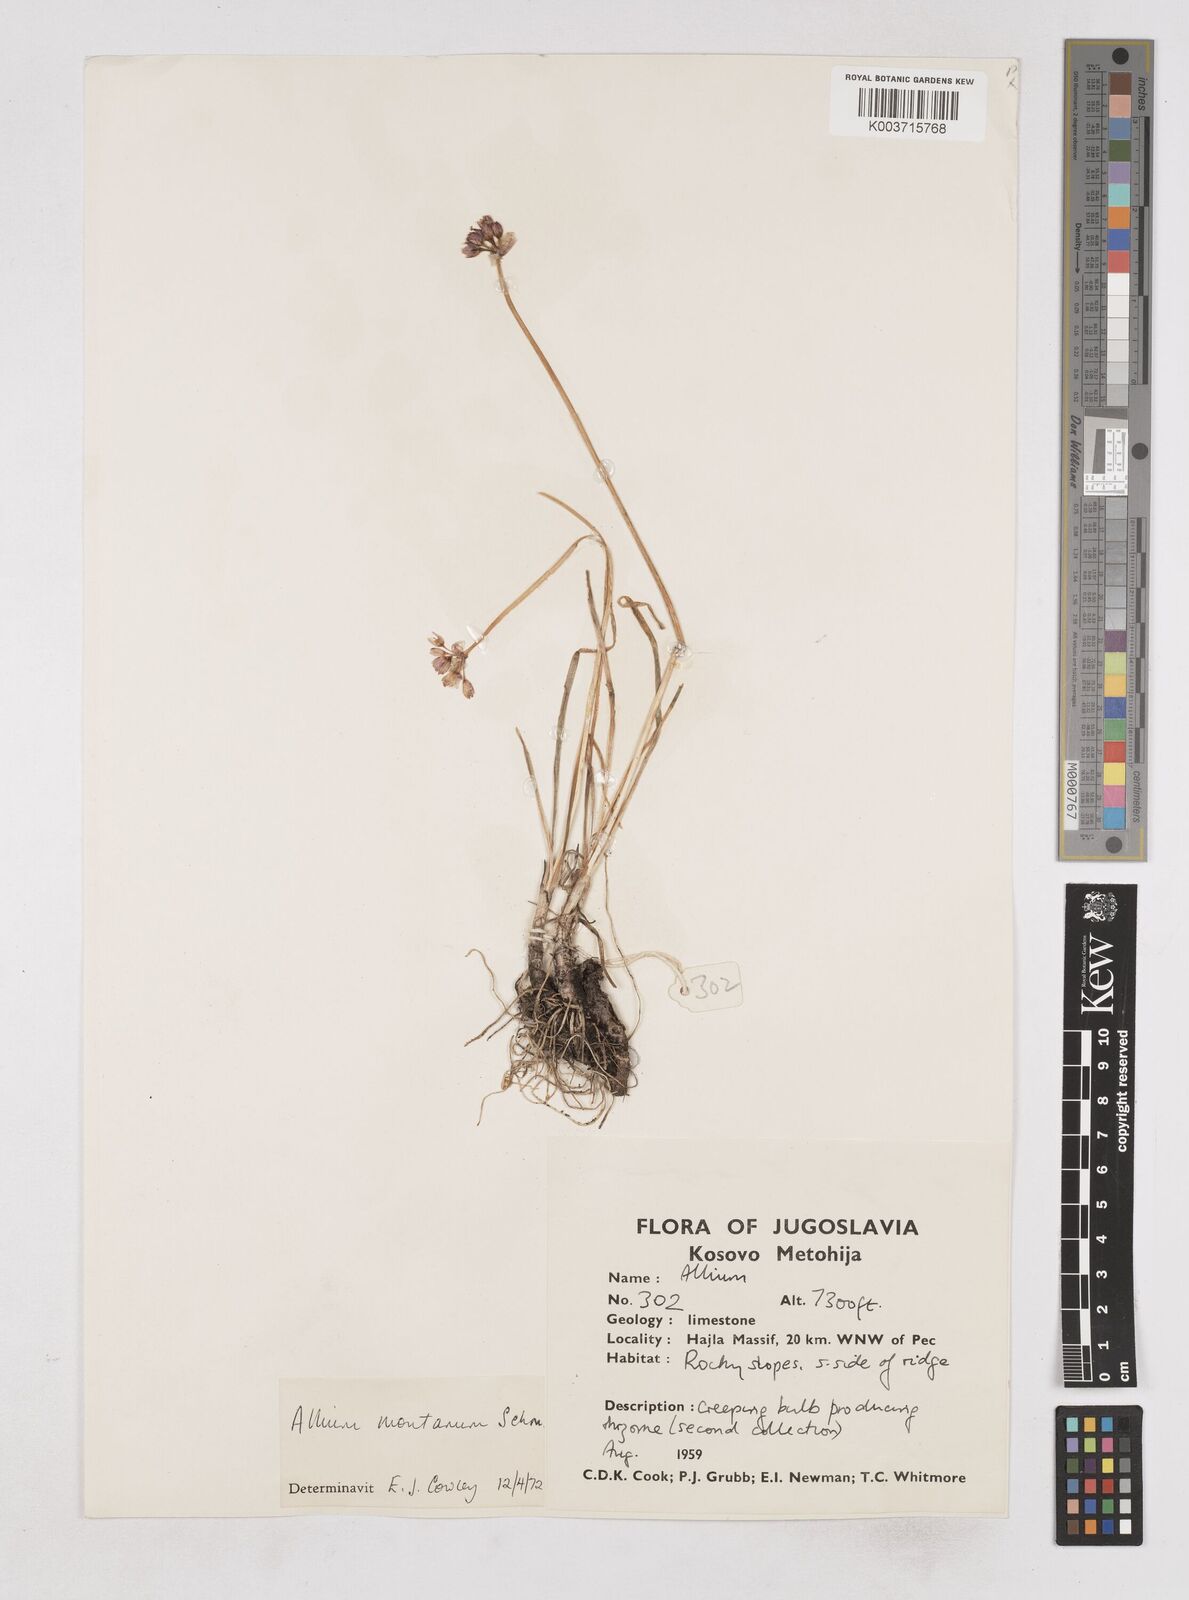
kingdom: Plantae
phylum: Tracheophyta
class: Liliopsida
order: Asparagales
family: Amaryllidaceae
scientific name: Amaryllidaceae
